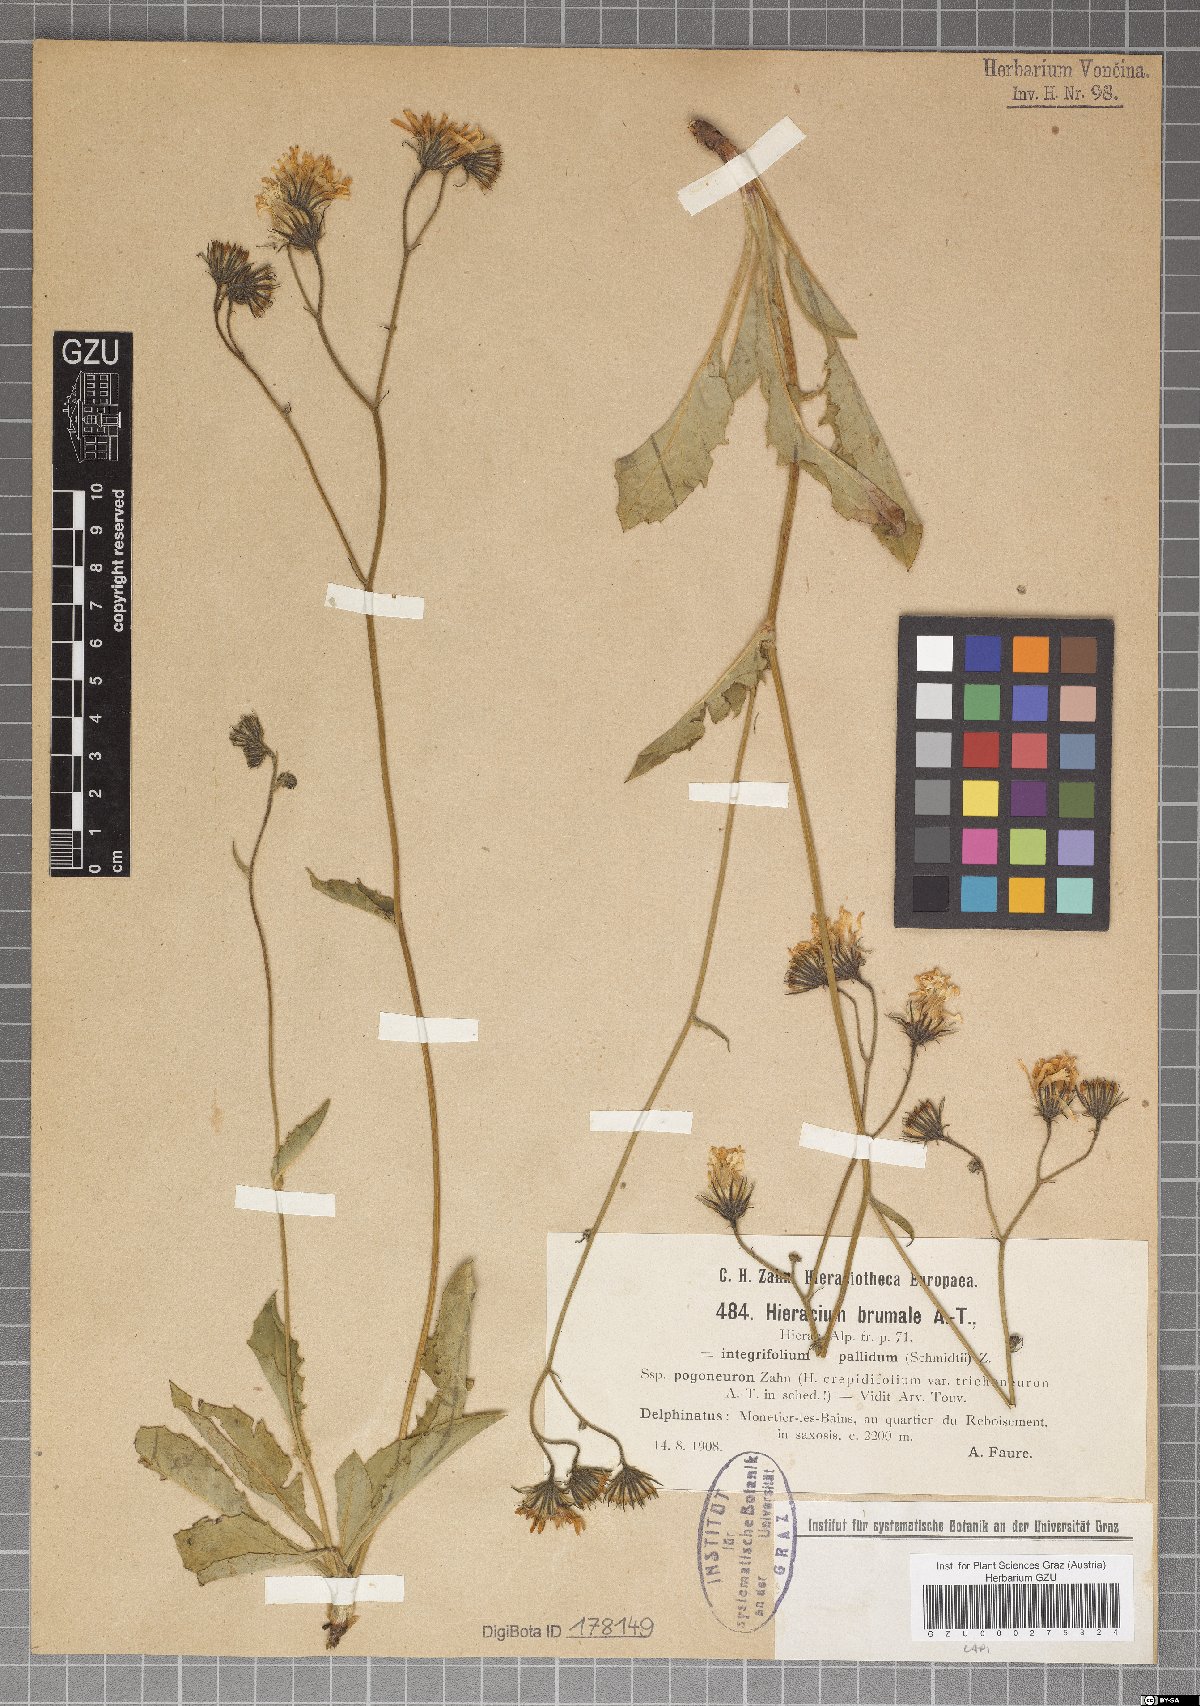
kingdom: Plantae
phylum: Tracheophyta
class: Magnoliopsida
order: Asterales
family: Asteraceae
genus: Hieracium
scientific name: Hieracium viride
